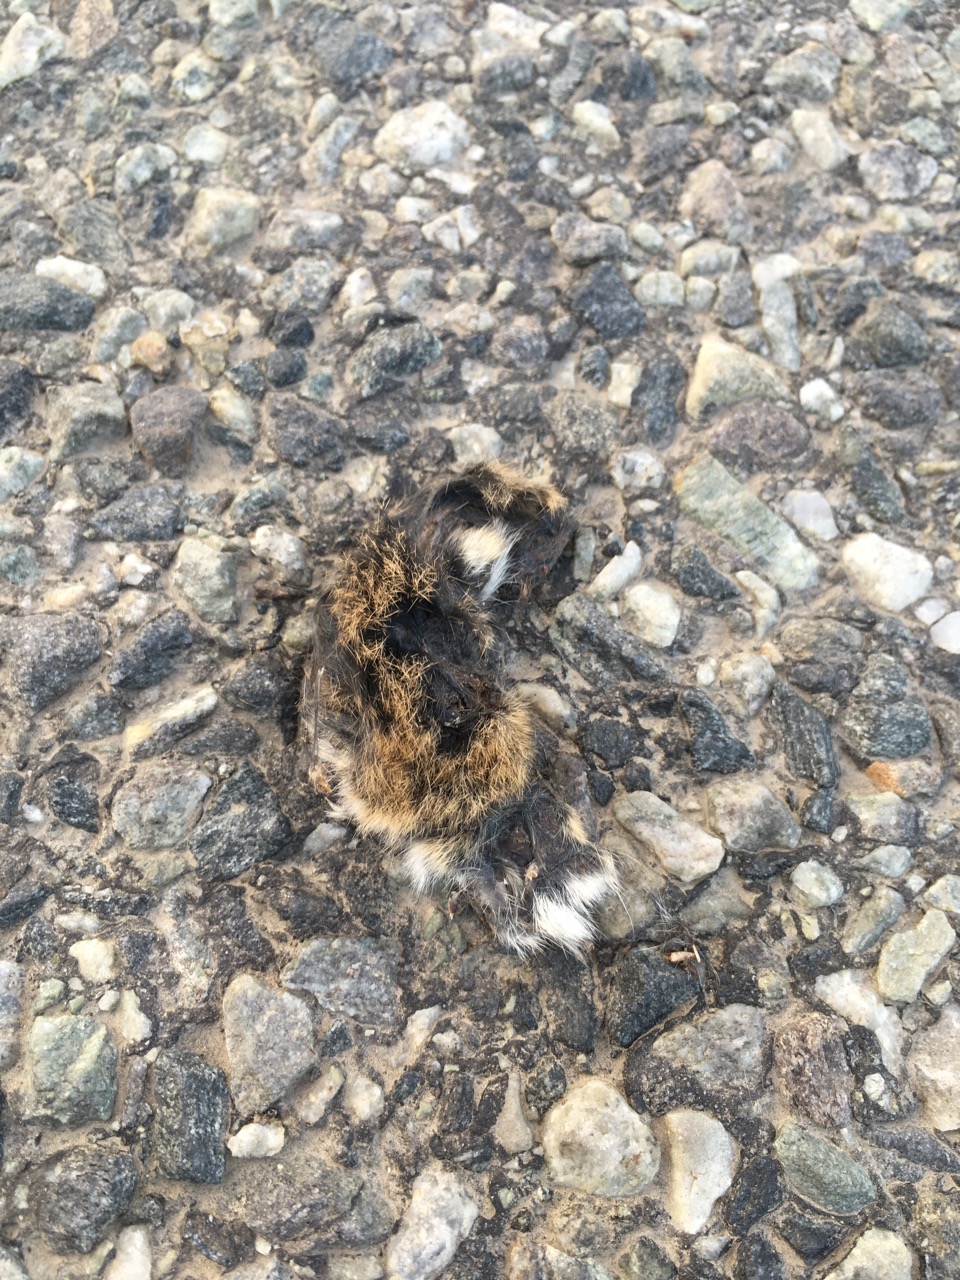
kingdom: Animalia
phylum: Chordata
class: Mammalia
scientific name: Mammalia
